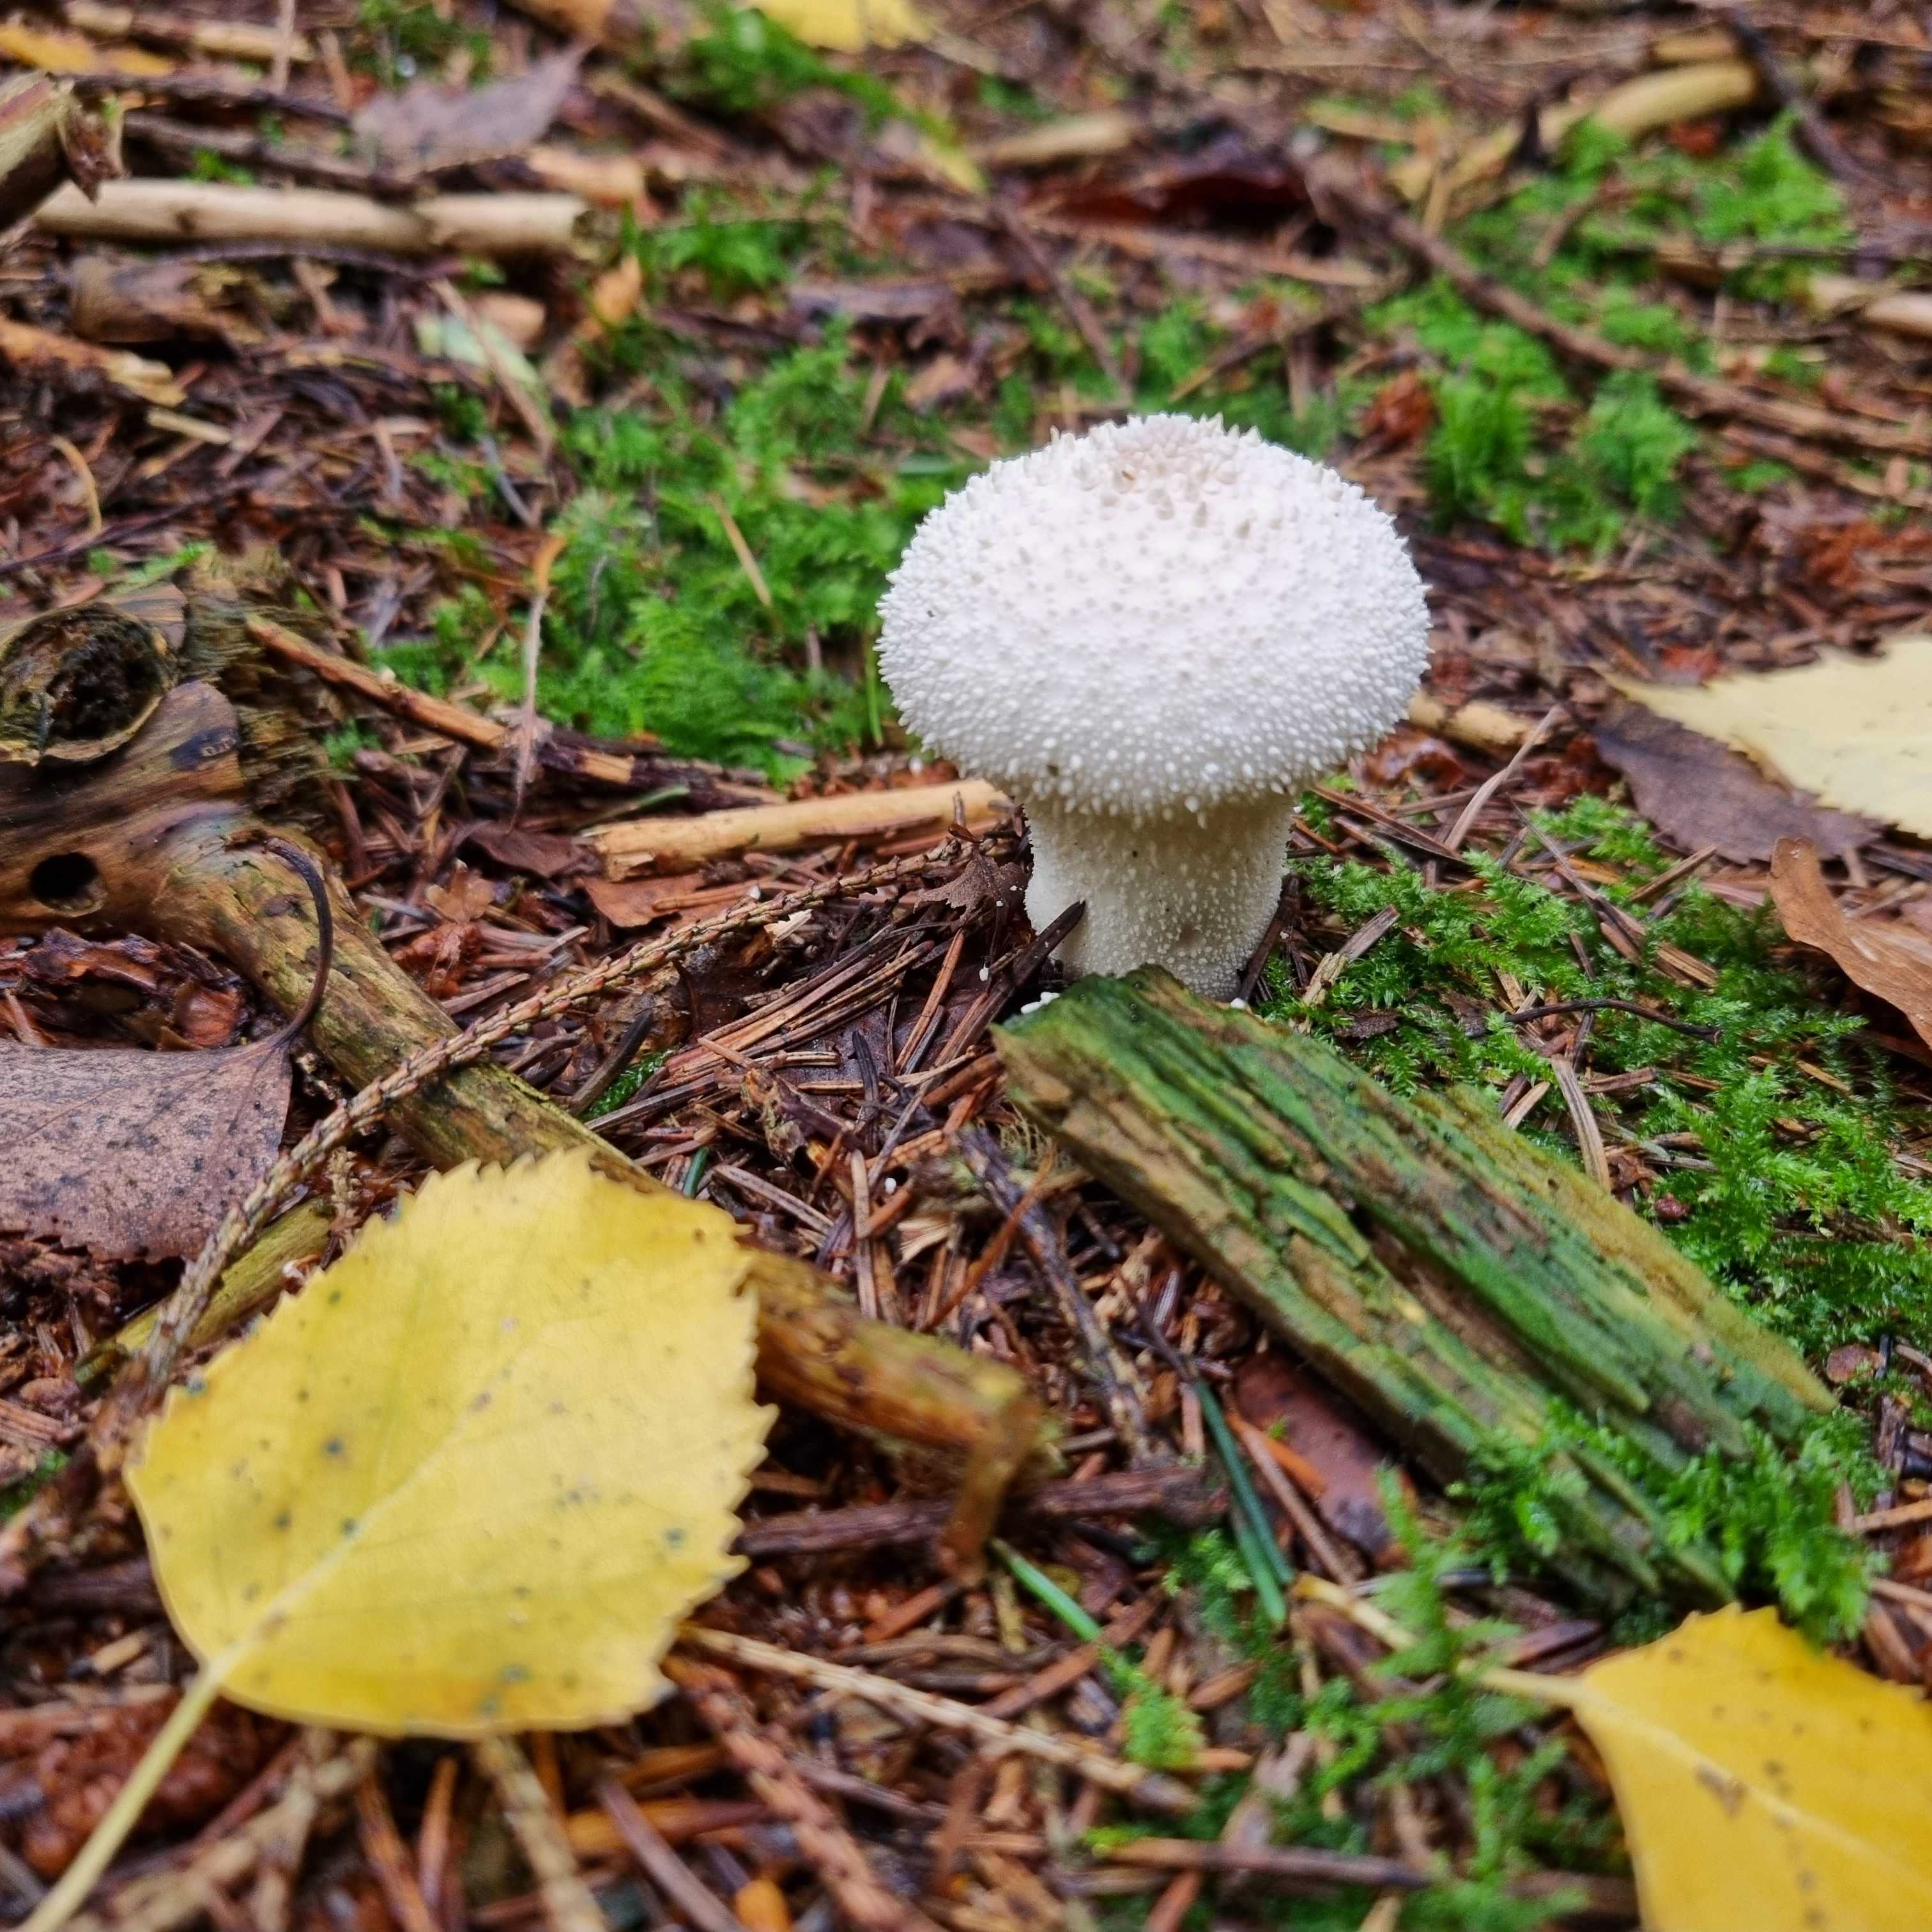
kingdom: Fungi
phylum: Basidiomycota
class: Agaricomycetes
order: Agaricales
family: Lycoperdaceae
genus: Lycoperdon
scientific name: Lycoperdon perlatum
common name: krystal-støvbold
